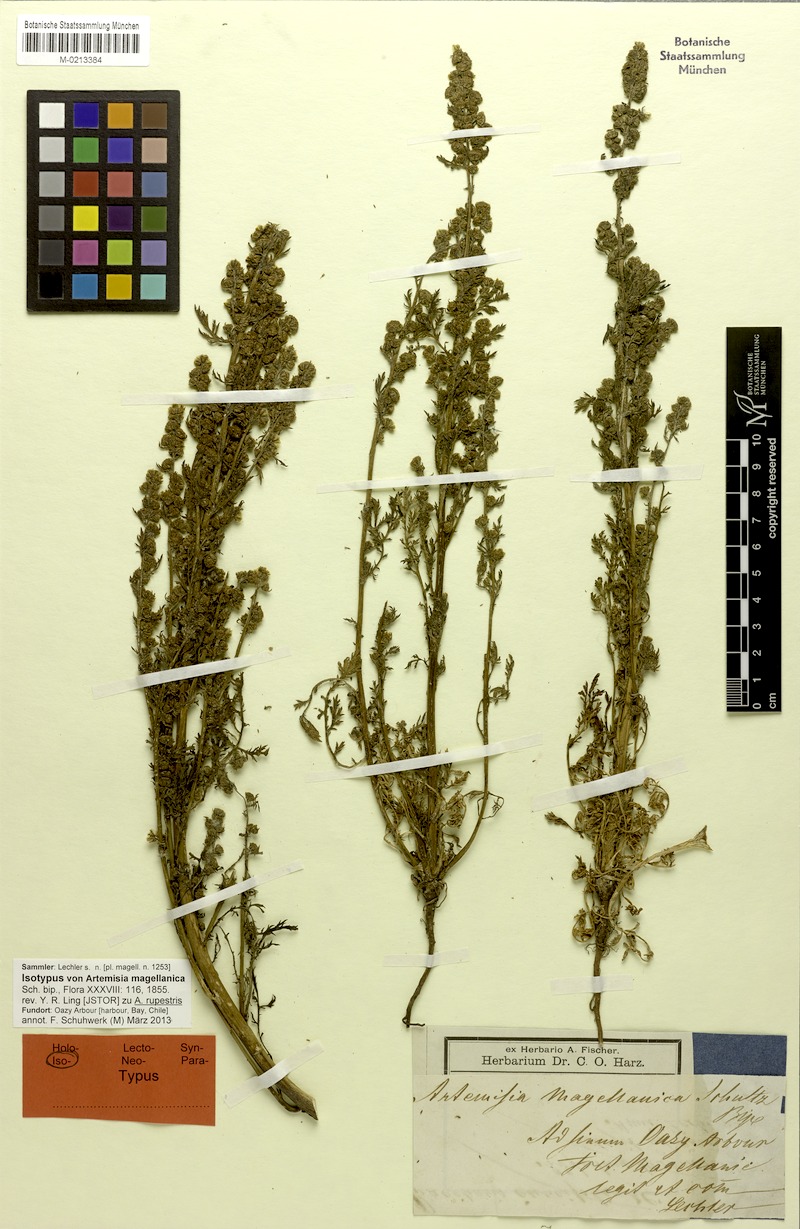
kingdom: Plantae
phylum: Tracheophyta
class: Magnoliopsida
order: Asterales
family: Asteraceae
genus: Artemisia
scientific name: Artemisia magellanica
